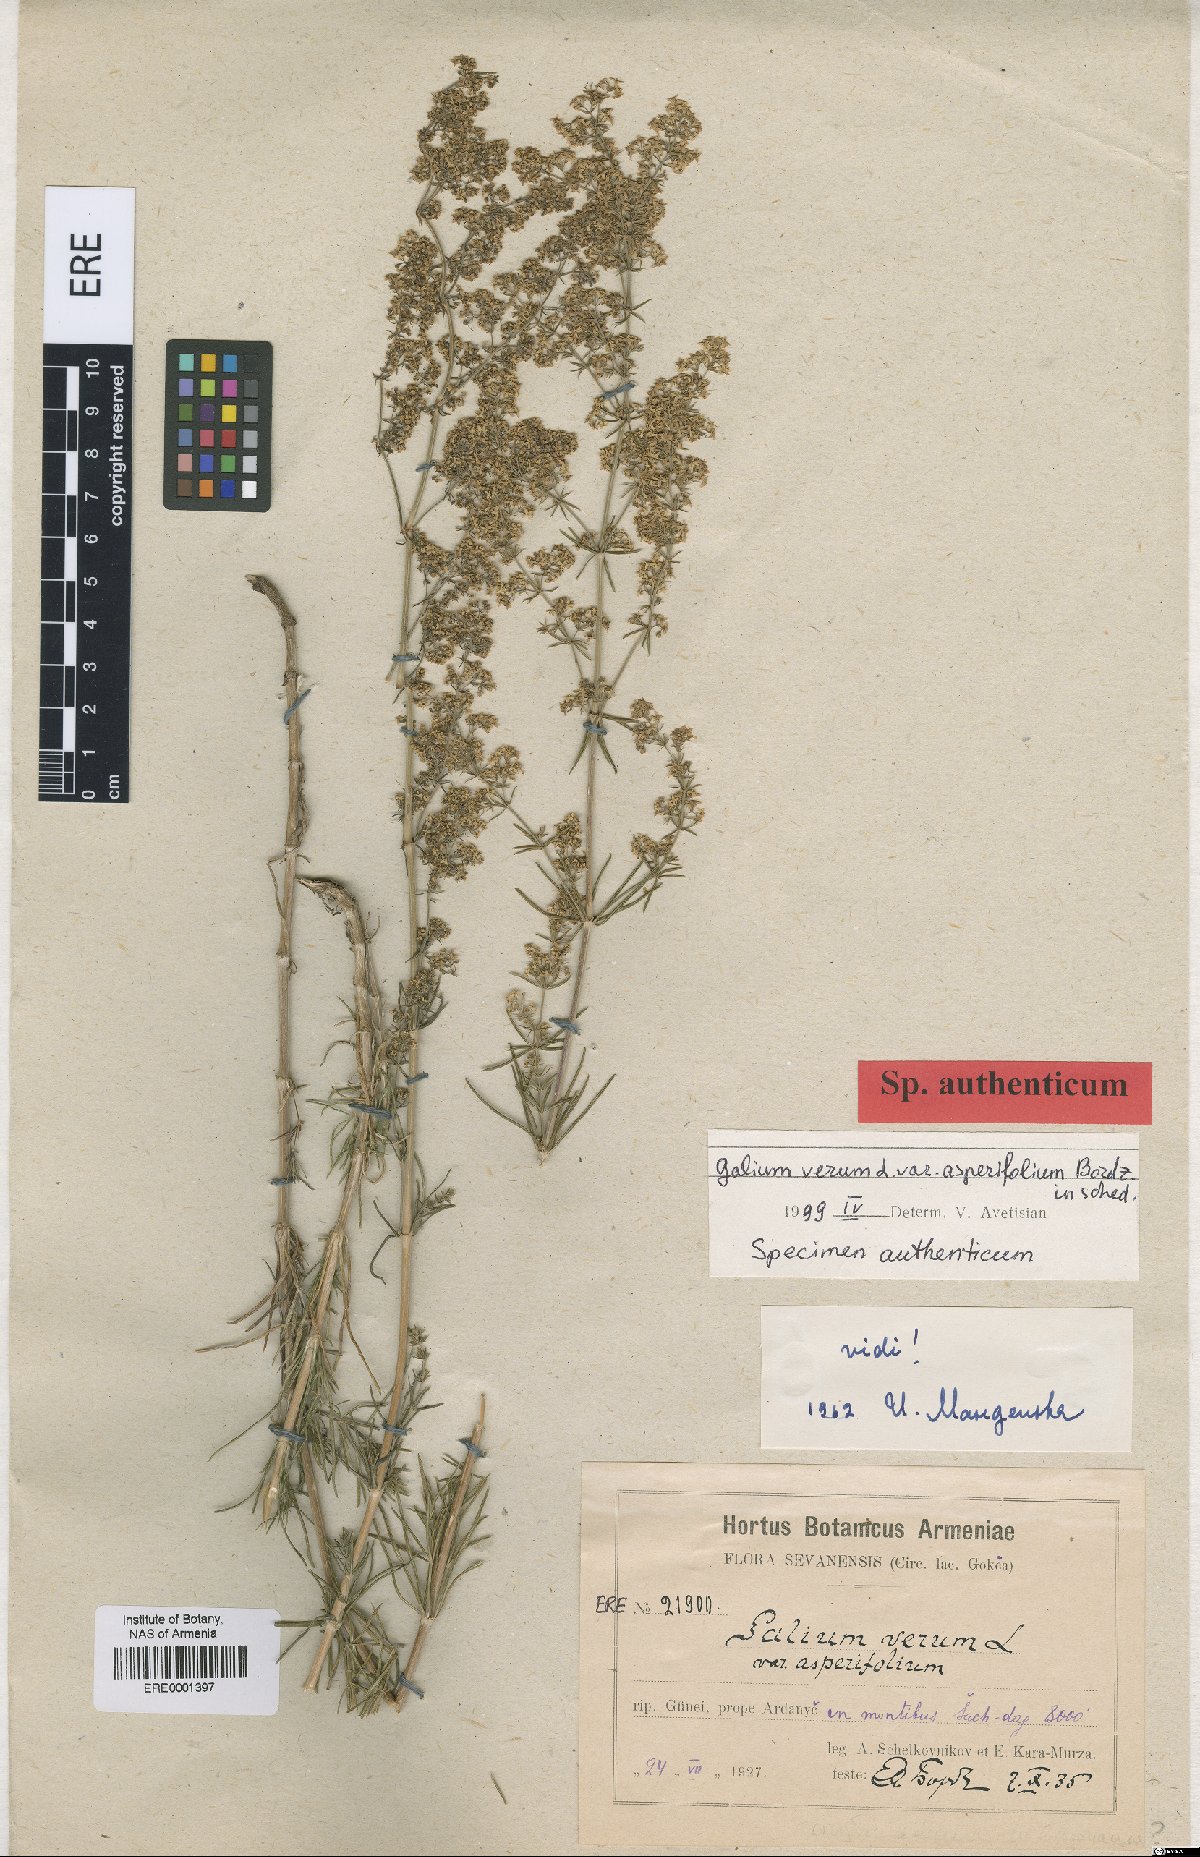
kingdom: Plantae
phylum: Tracheophyta
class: Magnoliopsida
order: Gentianales
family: Rubiaceae
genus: Galium
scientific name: Galium verum
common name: Lady's bedstraw
